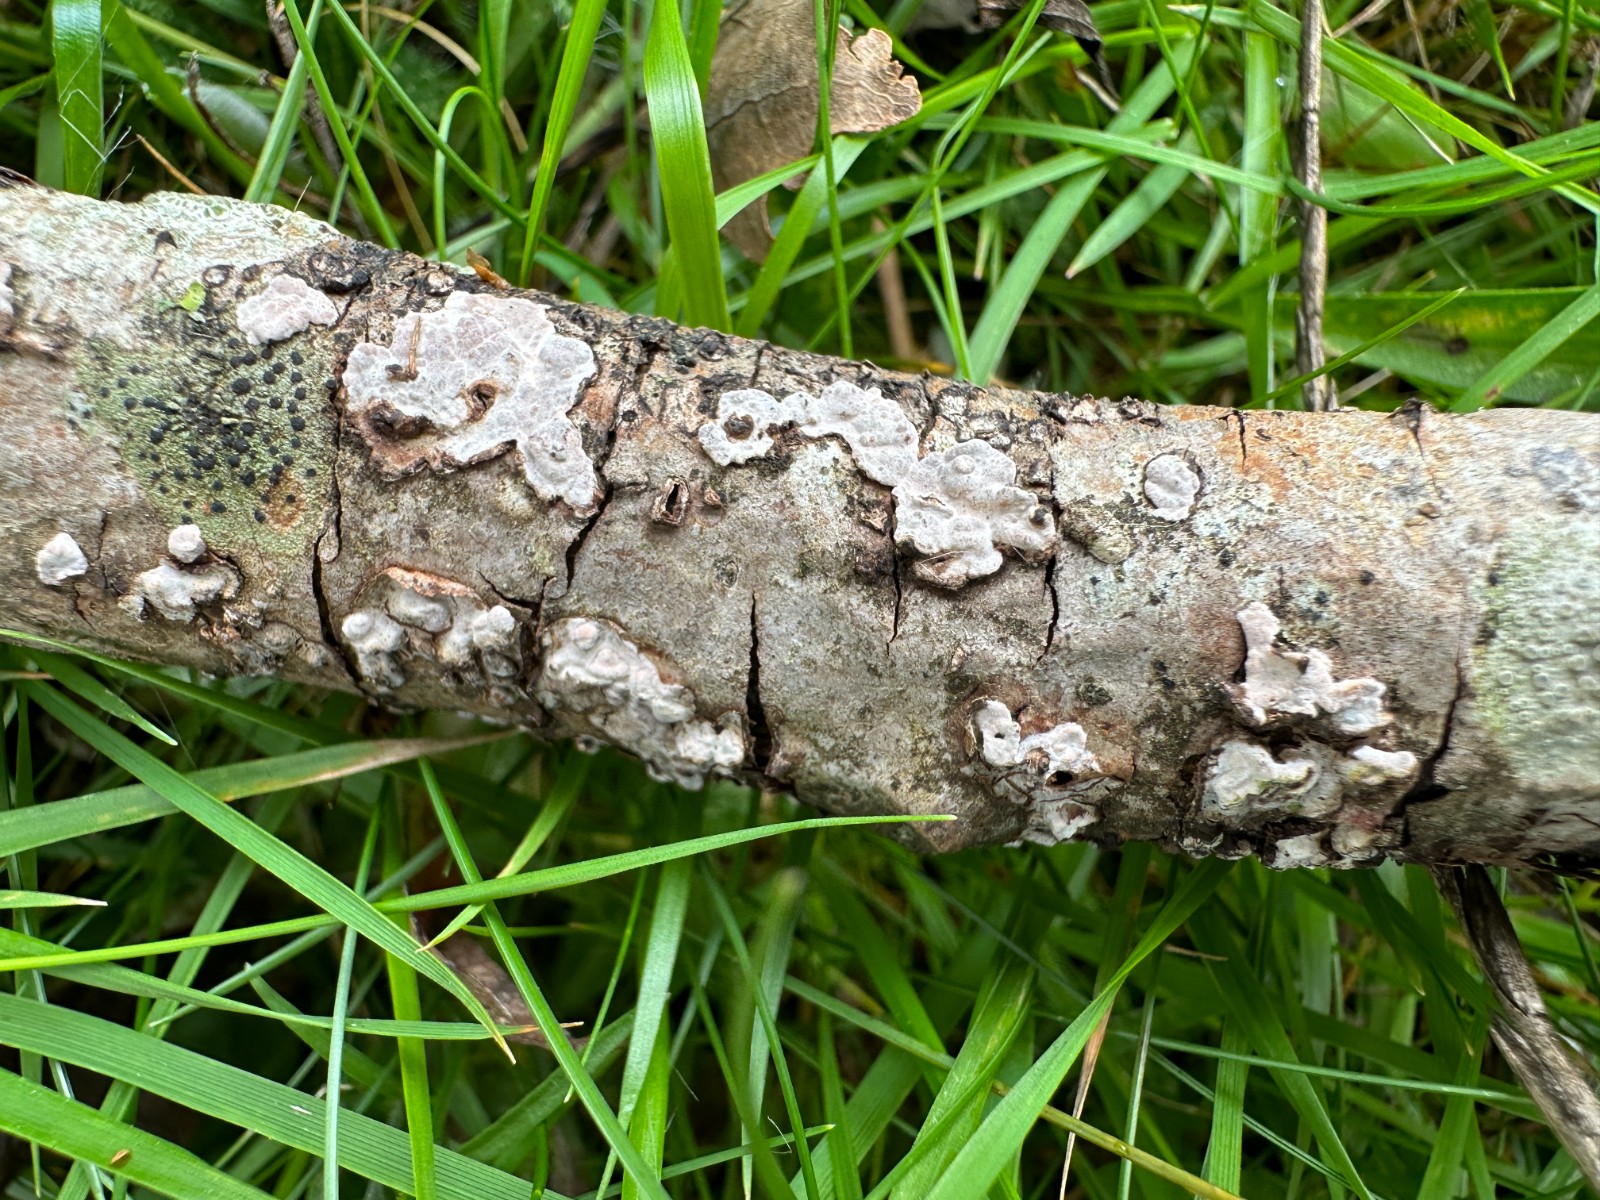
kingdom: Fungi
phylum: Basidiomycota
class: Agaricomycetes
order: Russulales
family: Peniophoraceae
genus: Peniophora
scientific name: Peniophora polygonia
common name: polygon-voksskind
